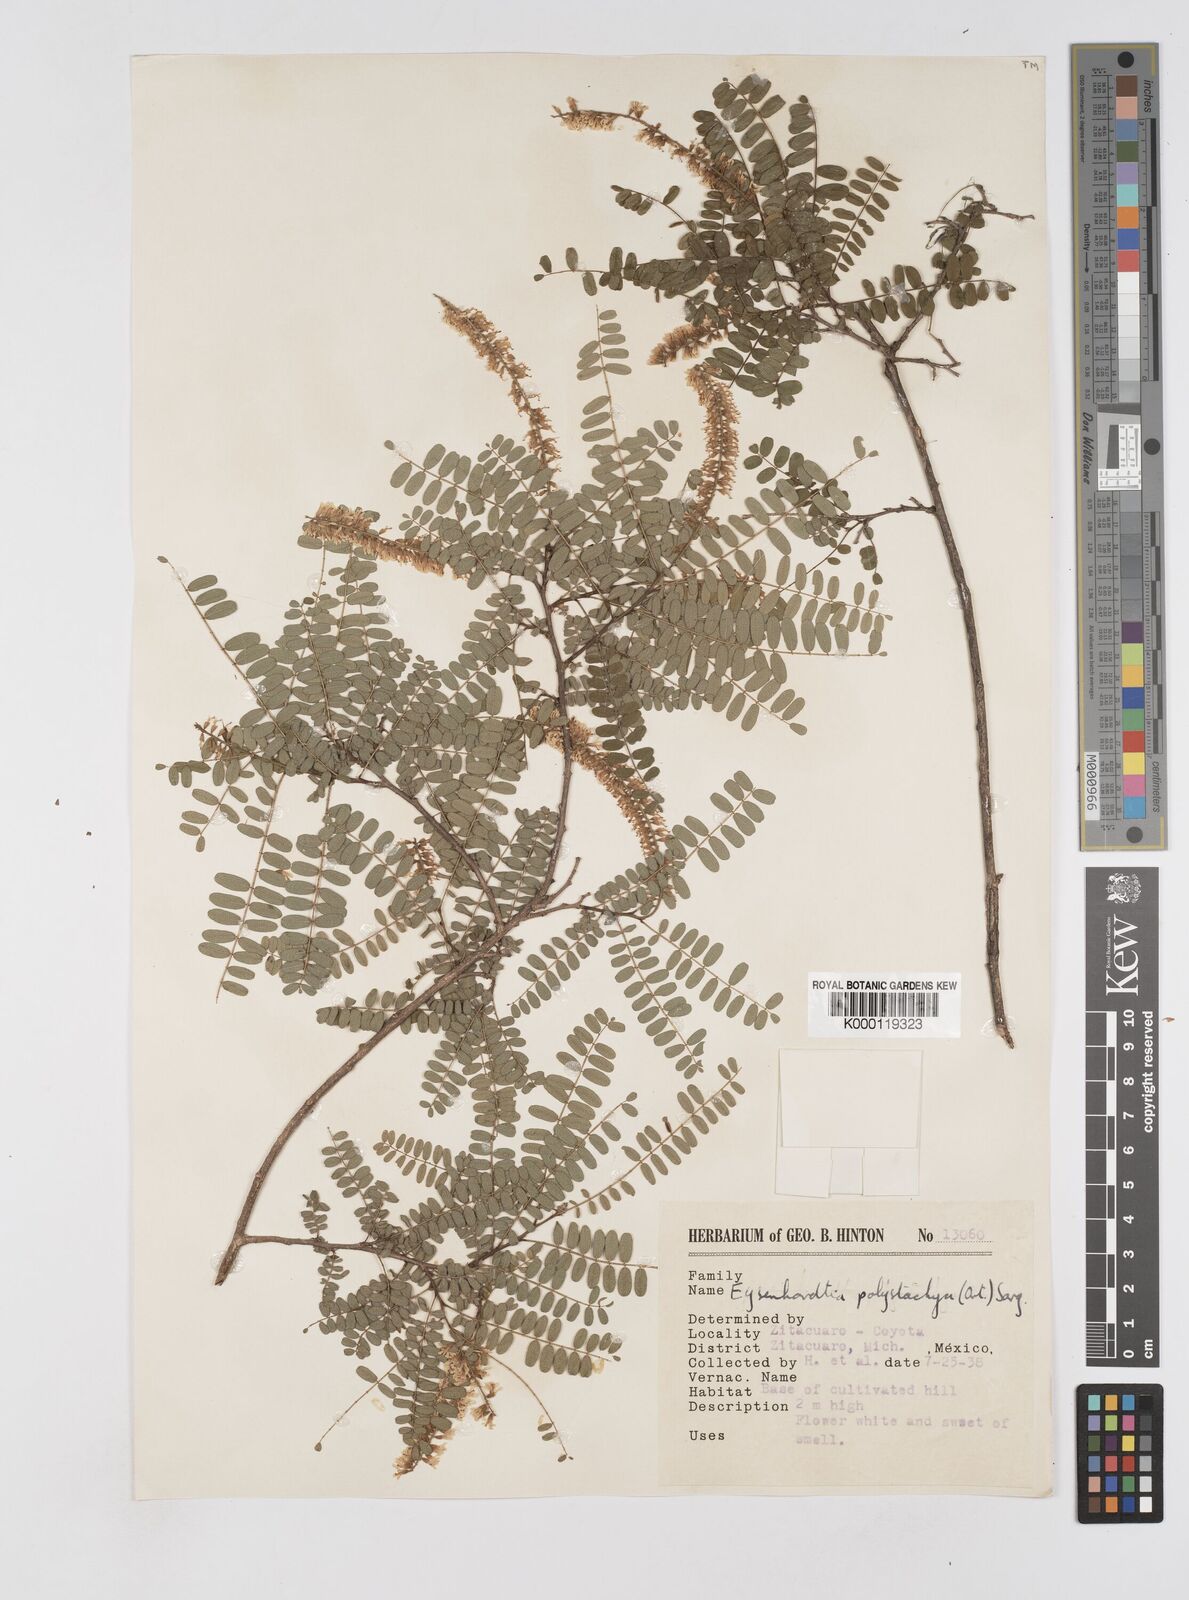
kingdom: Plantae
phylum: Tracheophyta
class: Magnoliopsida
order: Fabales
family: Fabaceae
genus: Eysenhardtia
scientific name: Eysenhardtia polystachya
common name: Kidneywood
